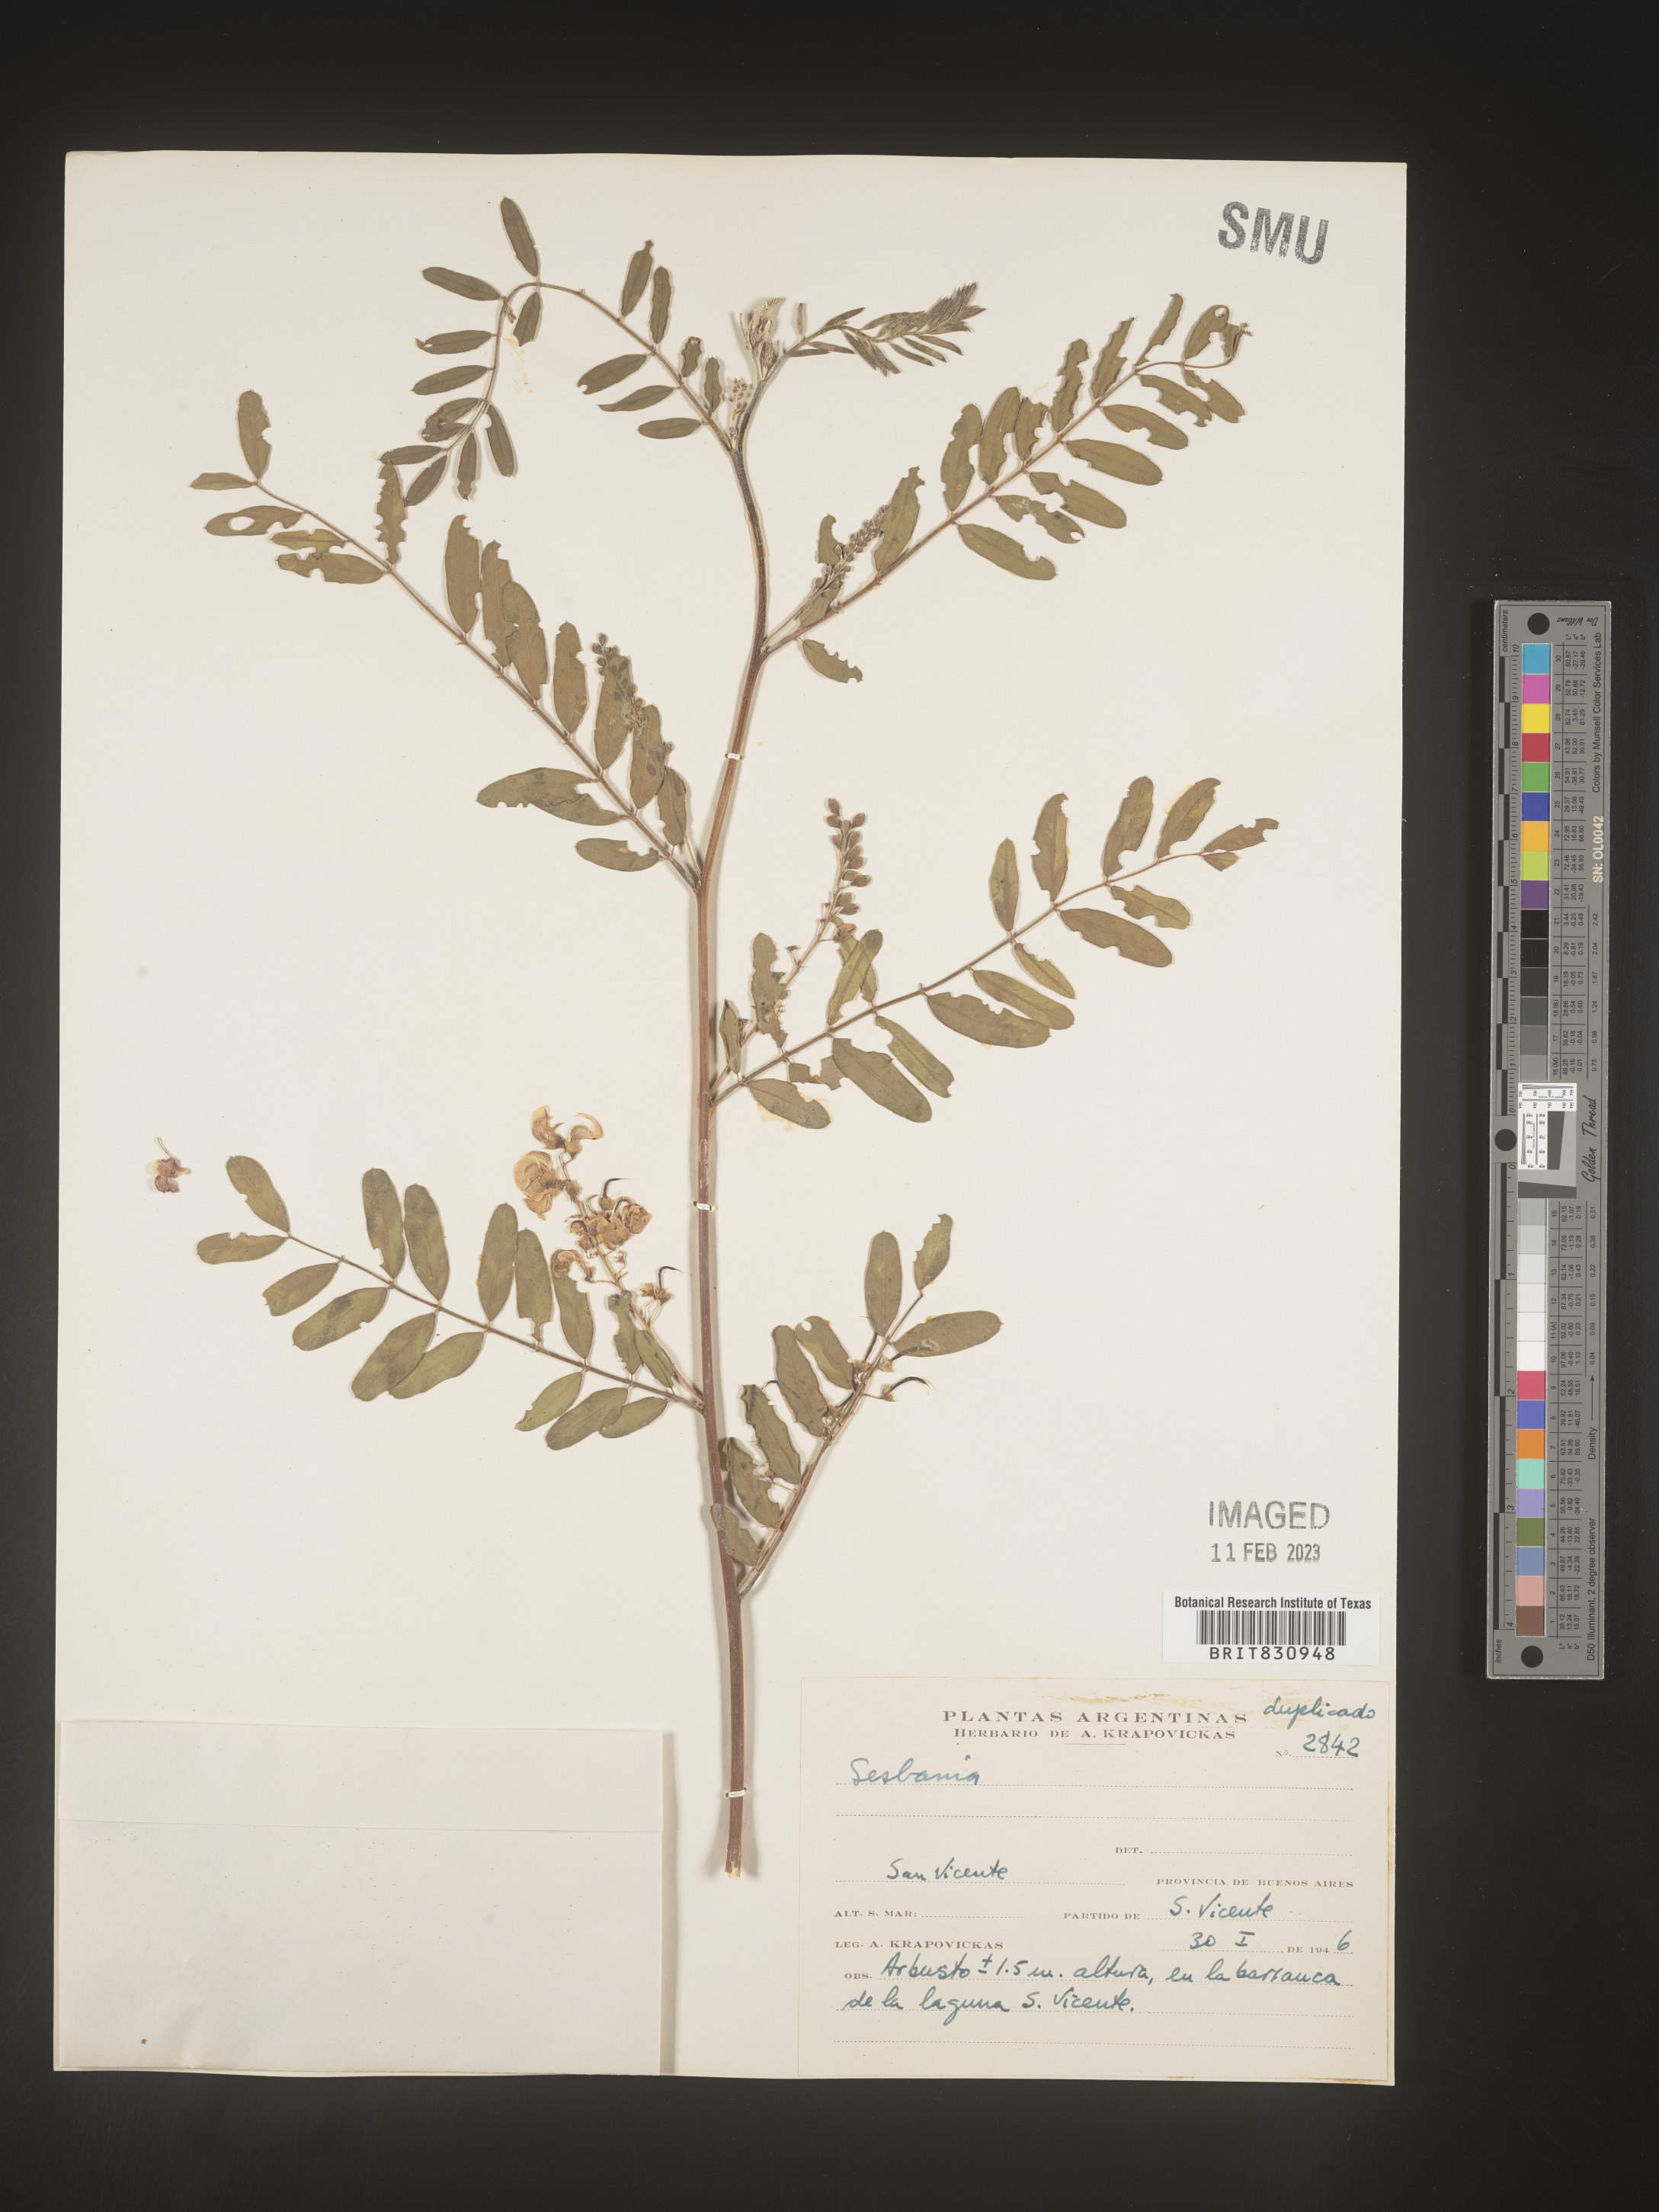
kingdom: Plantae
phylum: Tracheophyta
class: Magnoliopsida
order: Fabales
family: Fabaceae
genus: Sesbania
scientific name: Sesbania
